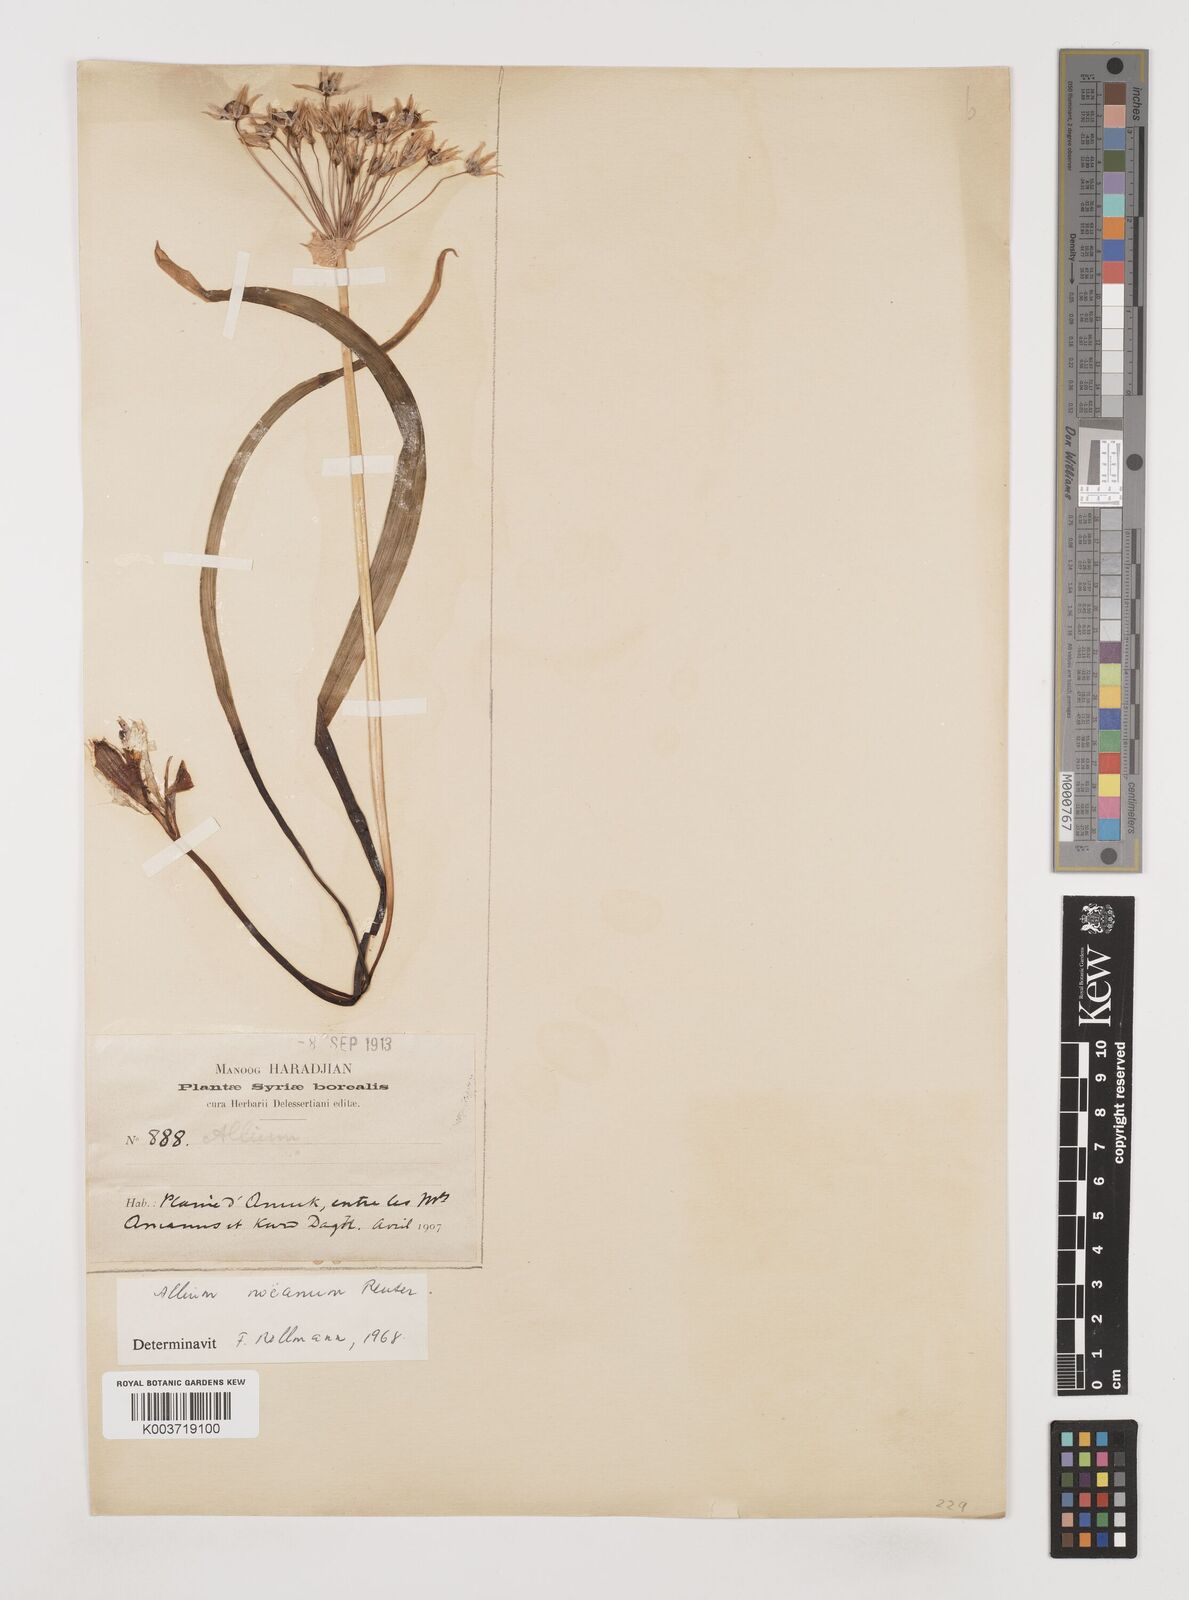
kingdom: Plantae
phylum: Tracheophyta
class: Liliopsida
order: Asparagales
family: Amaryllidaceae
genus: Allium
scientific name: Allium noeanum
